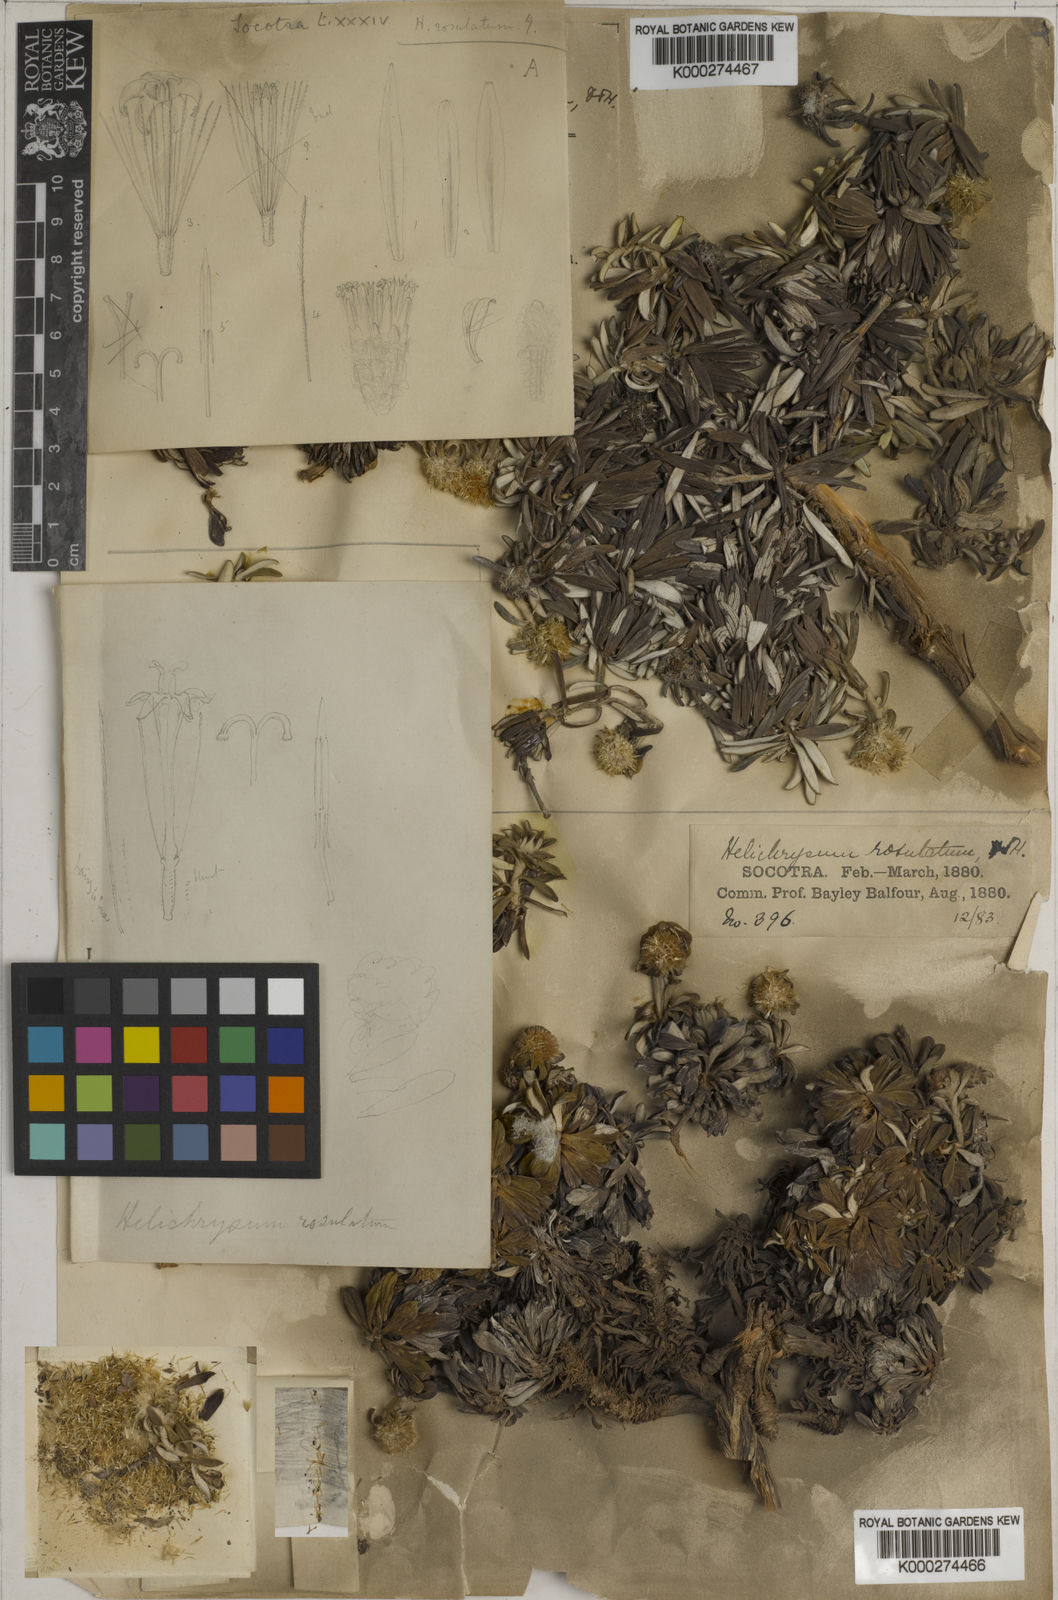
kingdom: Plantae
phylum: Tracheophyta
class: Magnoliopsida
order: Asterales
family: Asteraceae
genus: Libinhania
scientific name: Libinhania rosulata
